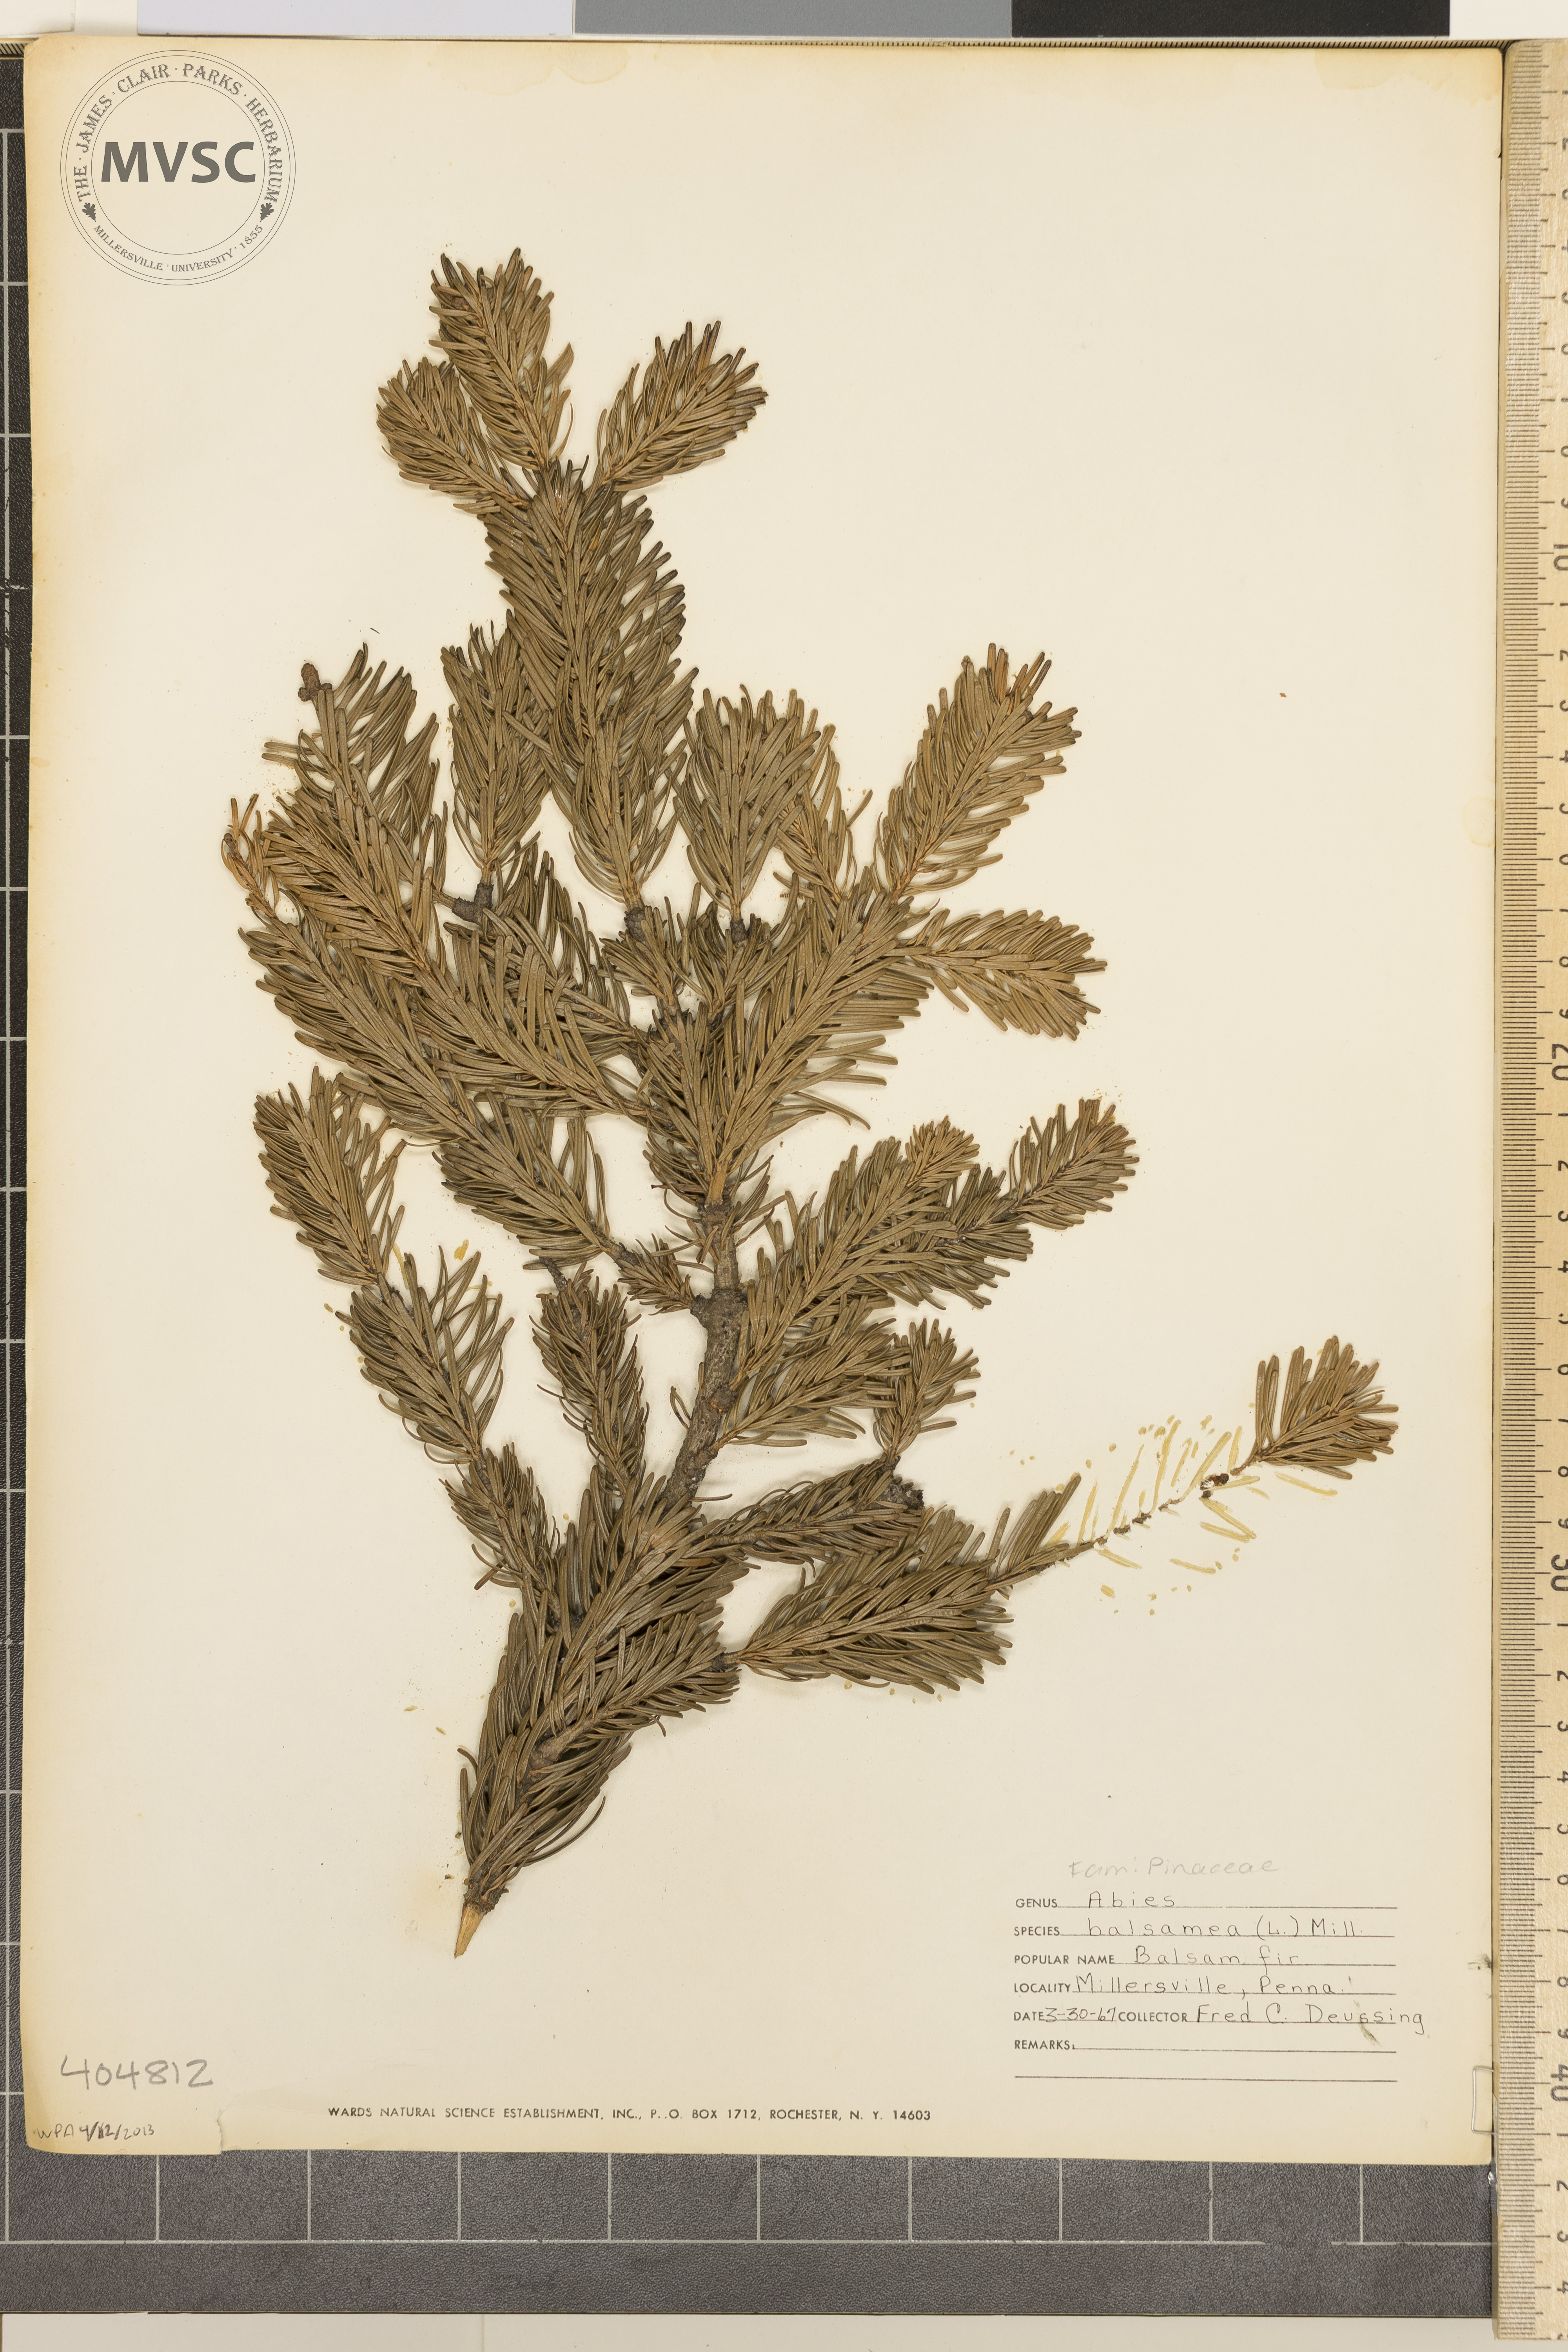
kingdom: Plantae
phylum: Tracheophyta
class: Pinopsida
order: Pinales
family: Pinaceae
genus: Abies
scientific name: Abies balsamea
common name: Balsam Fir
